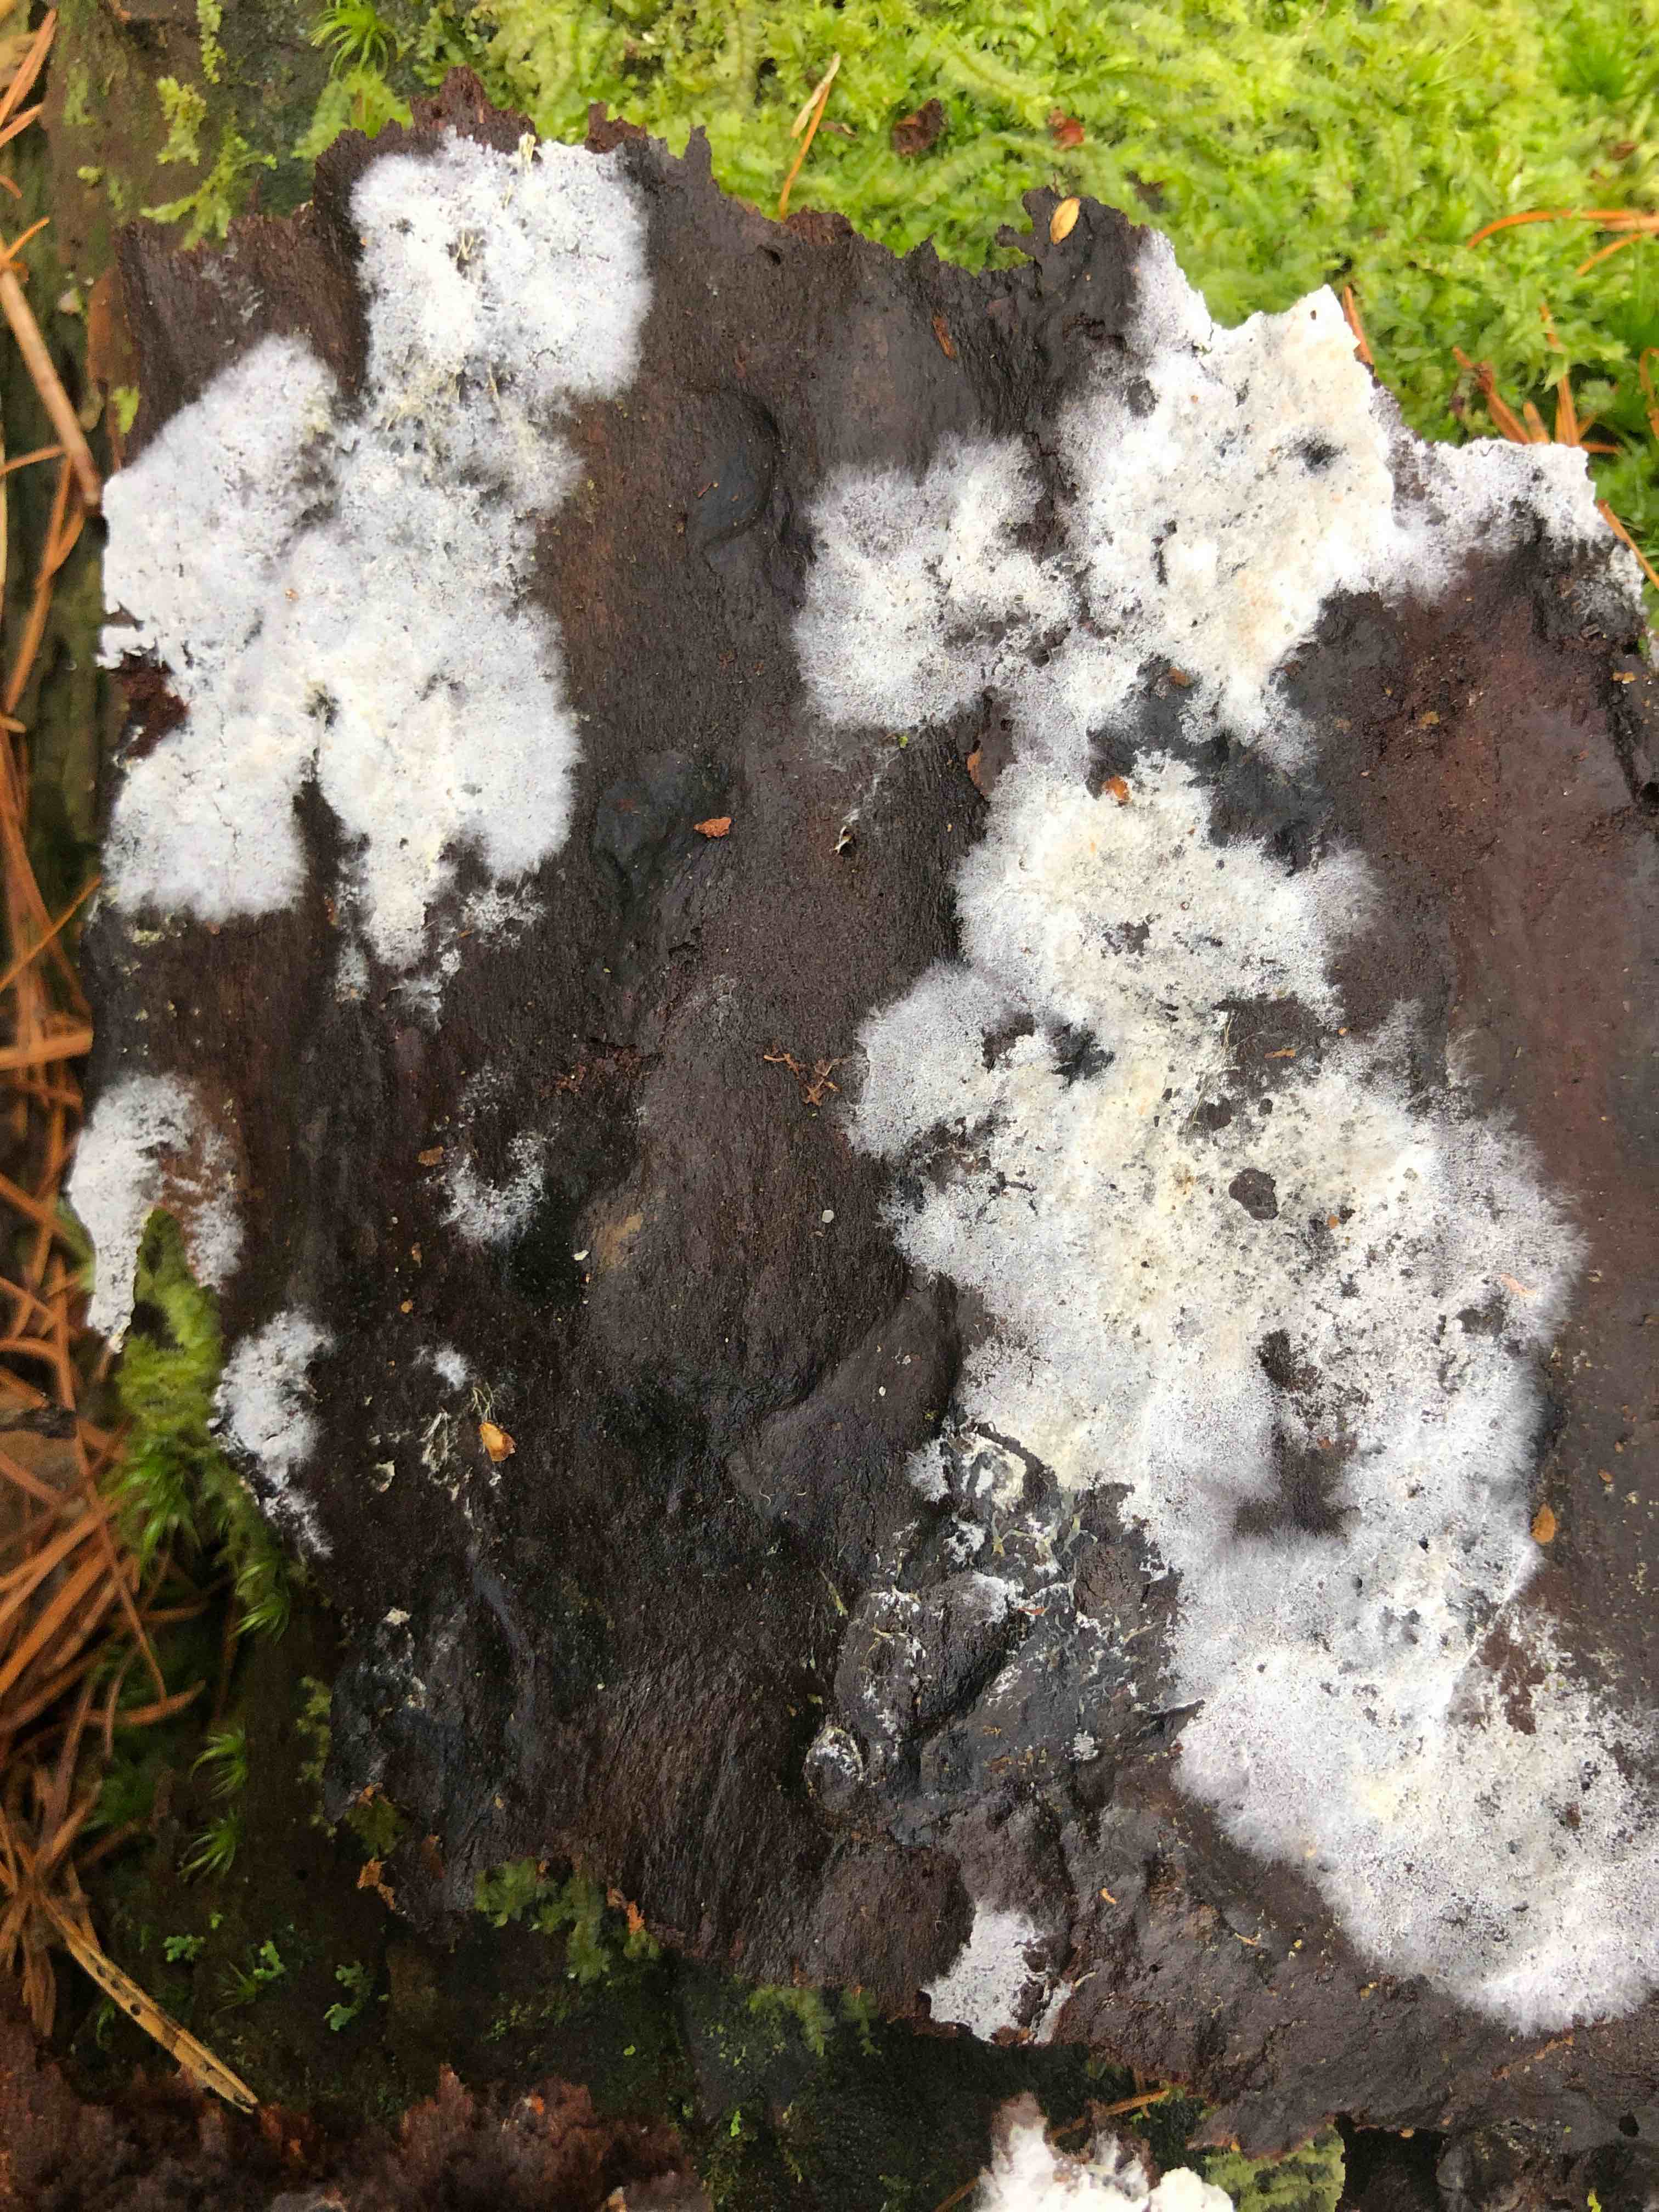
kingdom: Fungi
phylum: Basidiomycota
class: Agaricomycetes
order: Corticiales
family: Corticiaceae
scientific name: Corticiaceae
